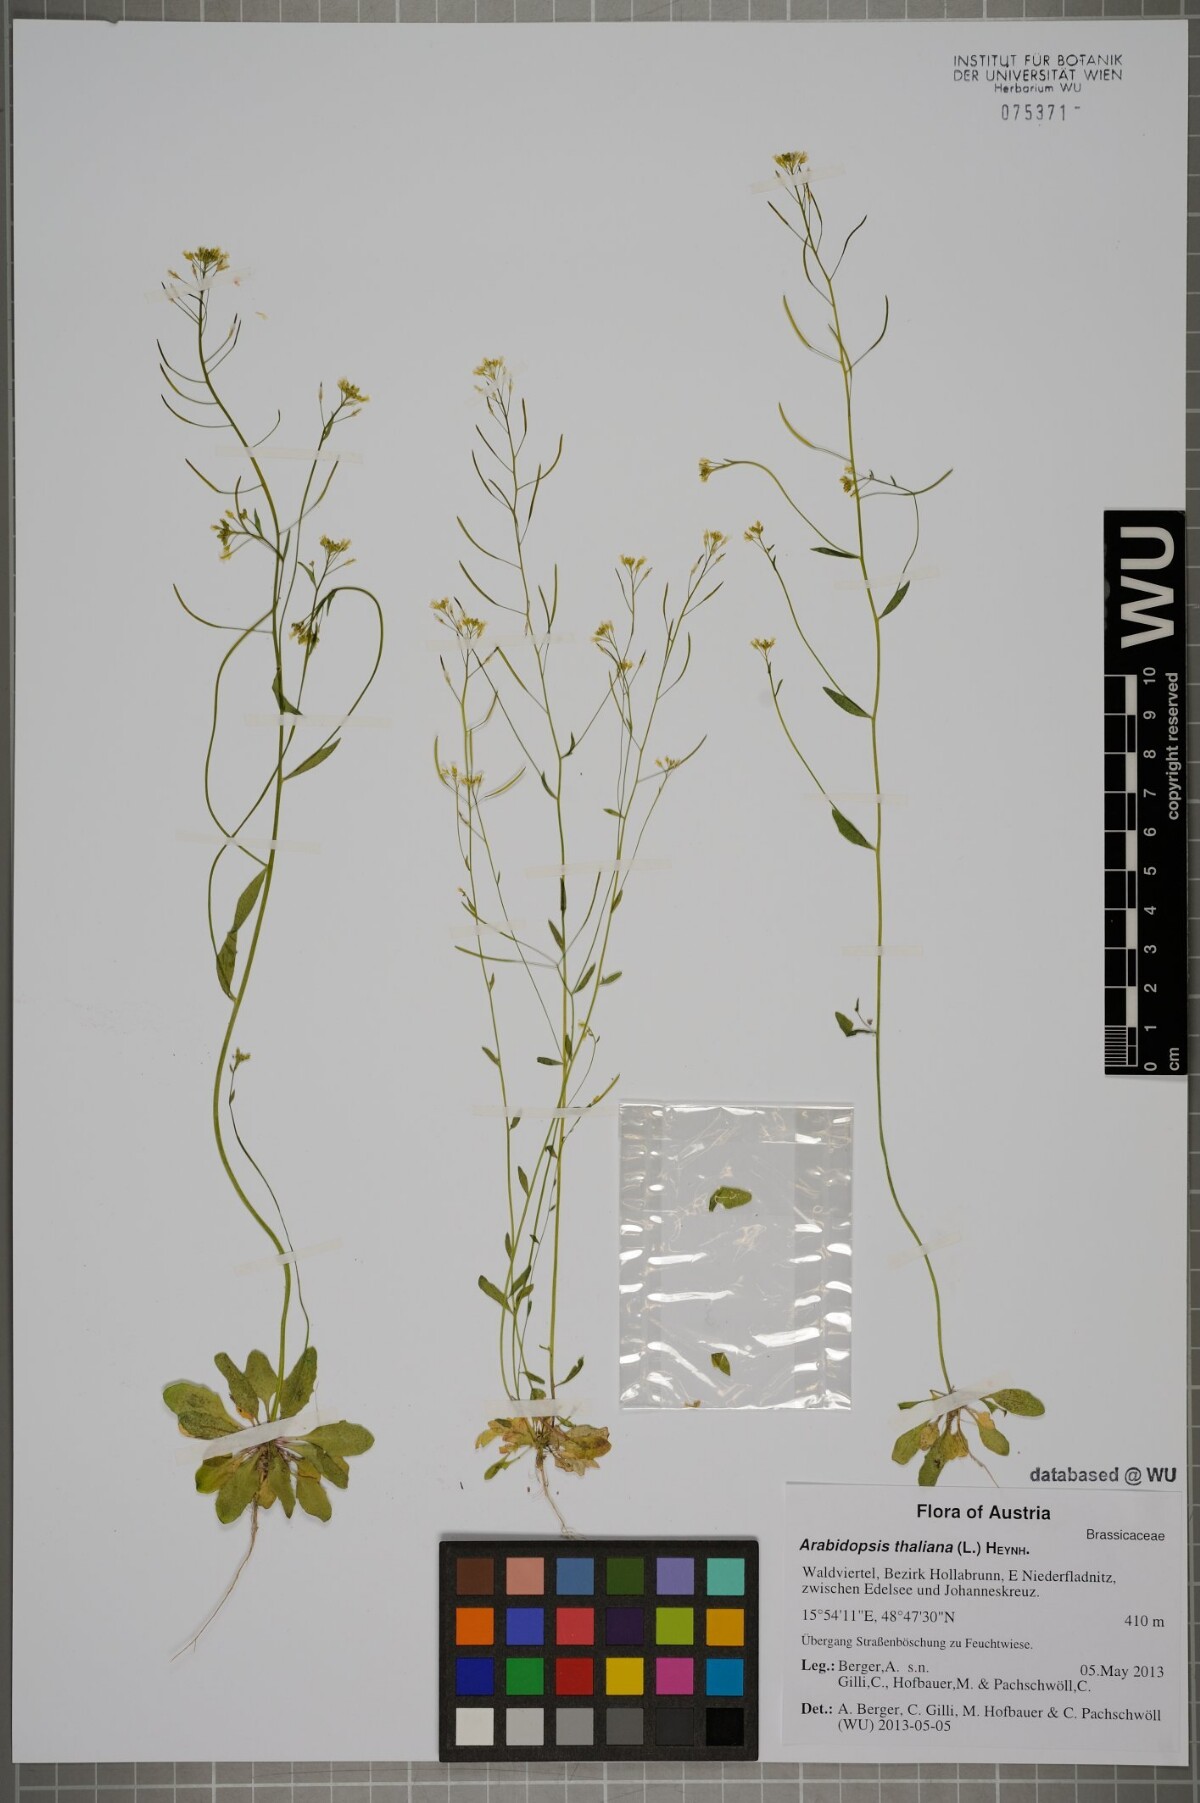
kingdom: Plantae
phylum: Tracheophyta
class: Magnoliopsida
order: Brassicales
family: Brassicaceae
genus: Arabidopsis
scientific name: Arabidopsis thaliana
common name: Thale cress
